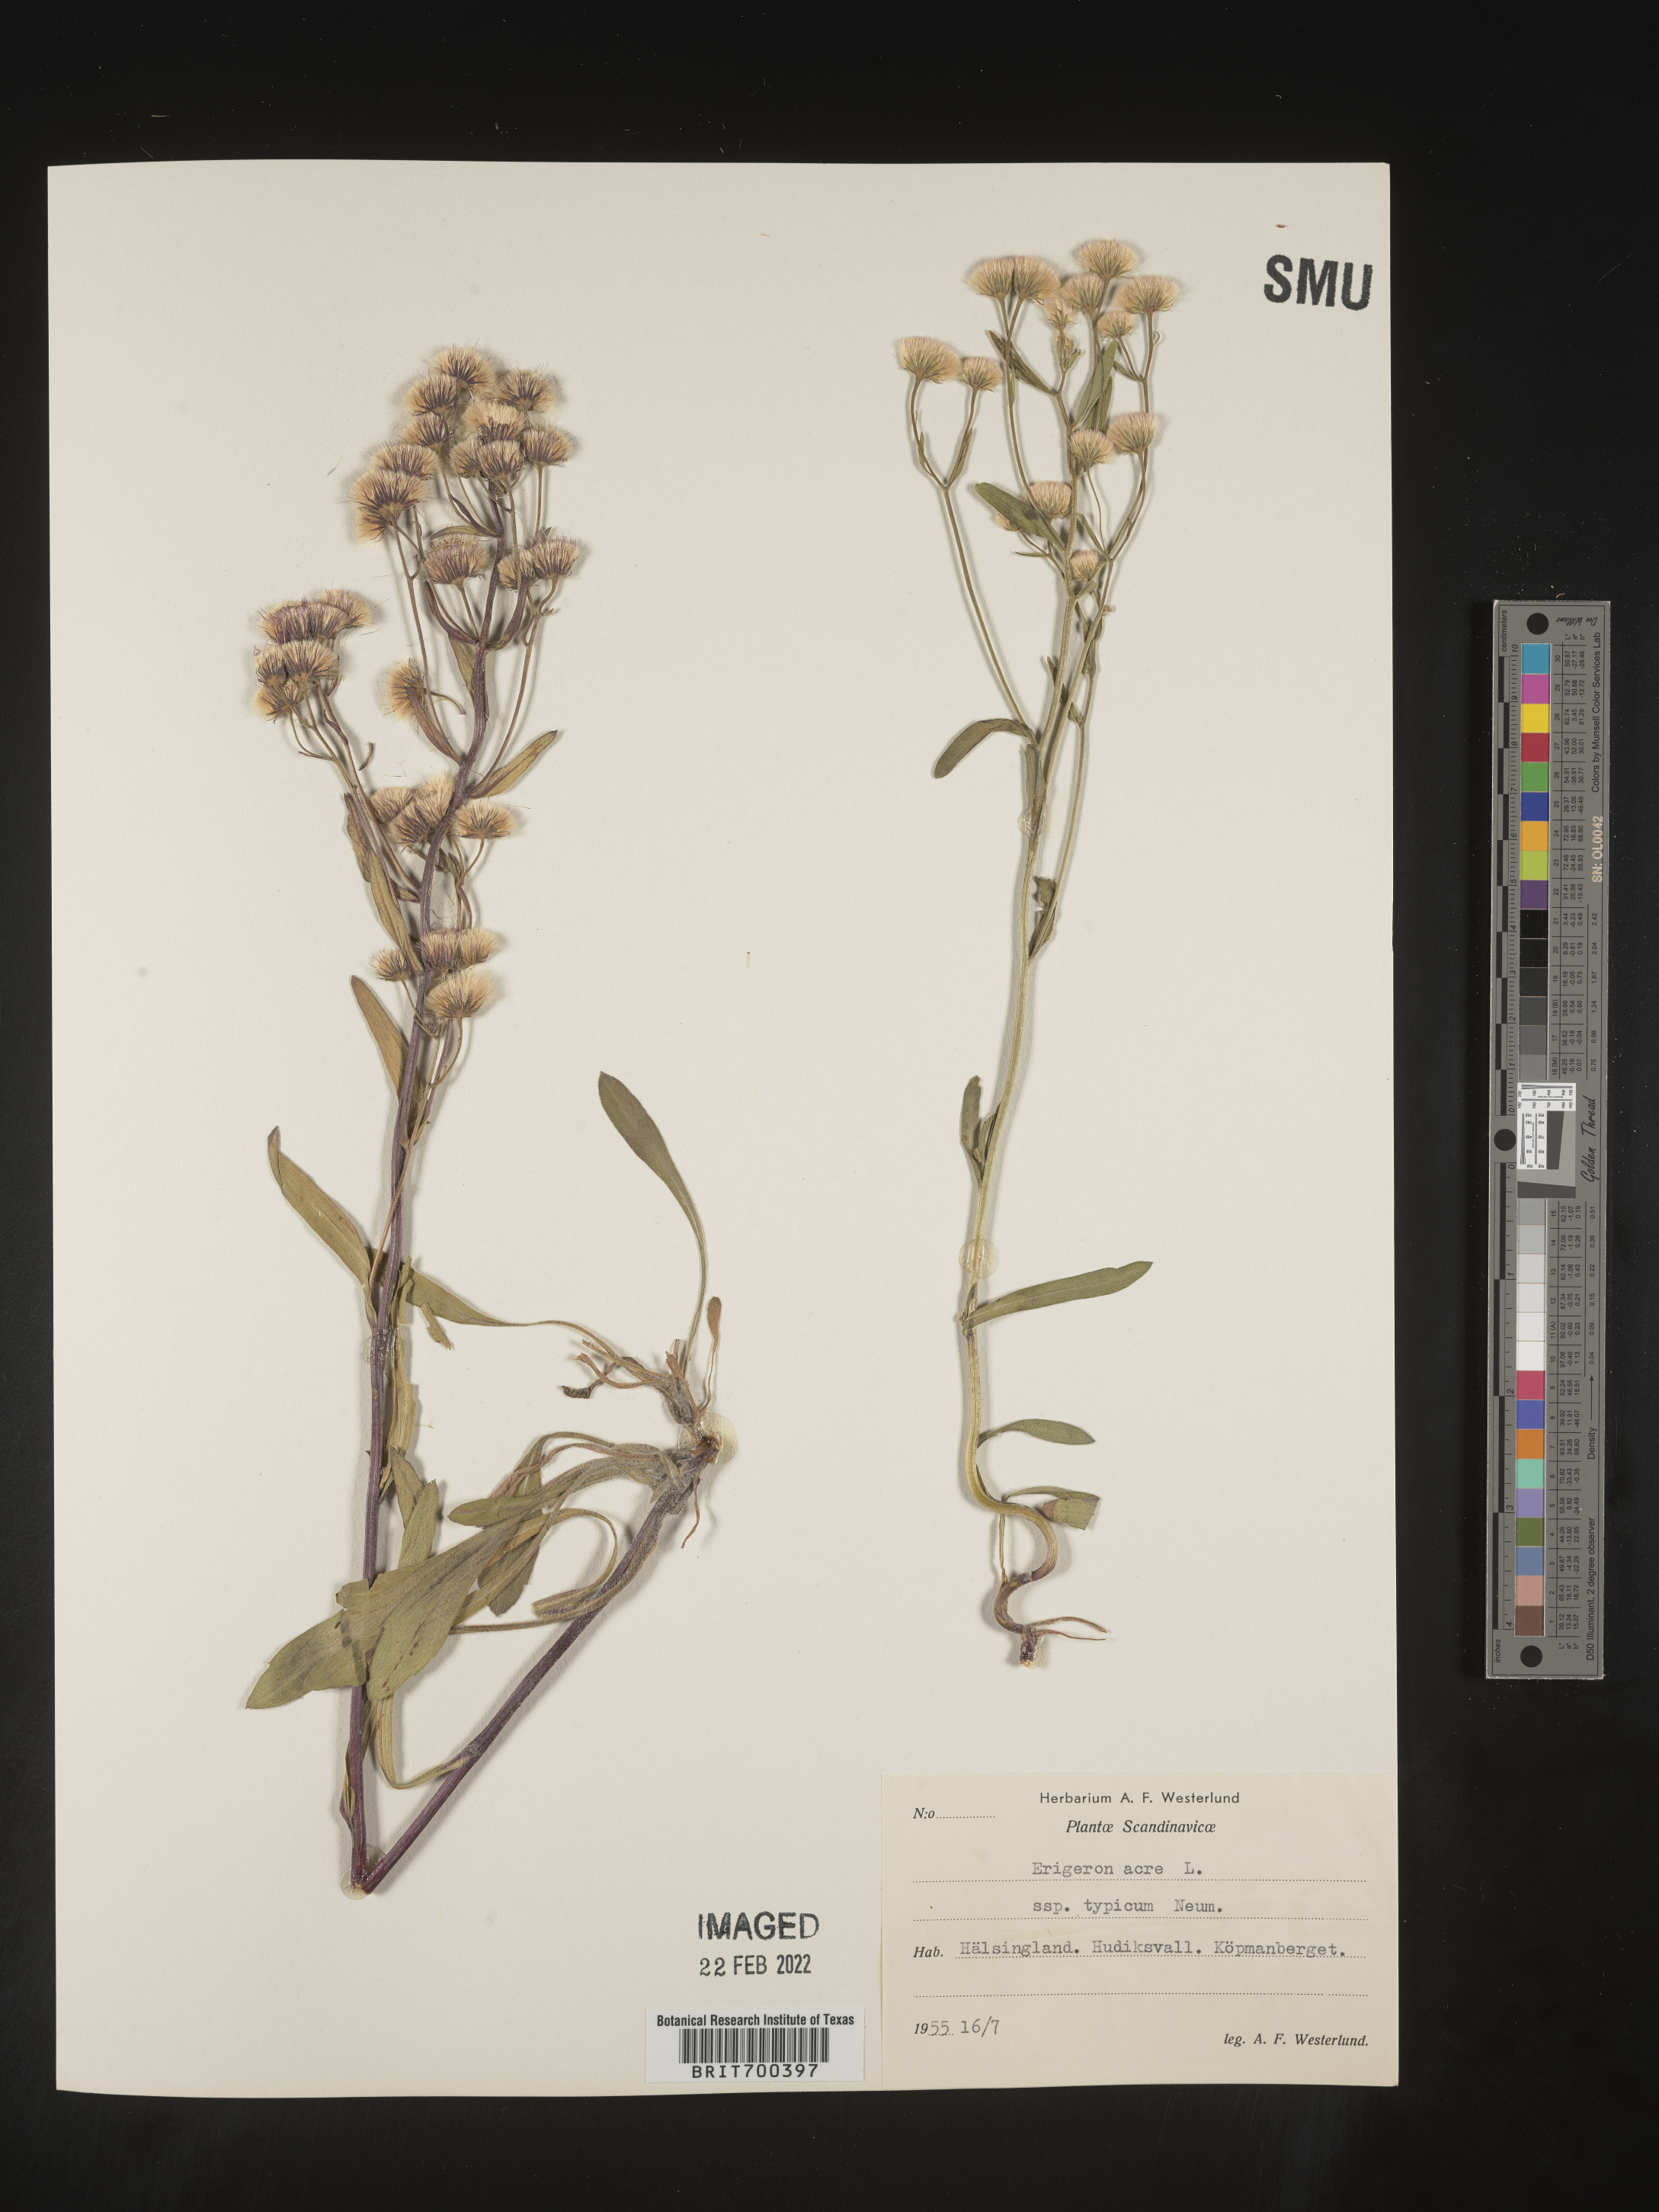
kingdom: Plantae
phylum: Tracheophyta
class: Magnoliopsida
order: Asterales
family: Asteraceae
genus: Erigeron
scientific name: Erigeron
